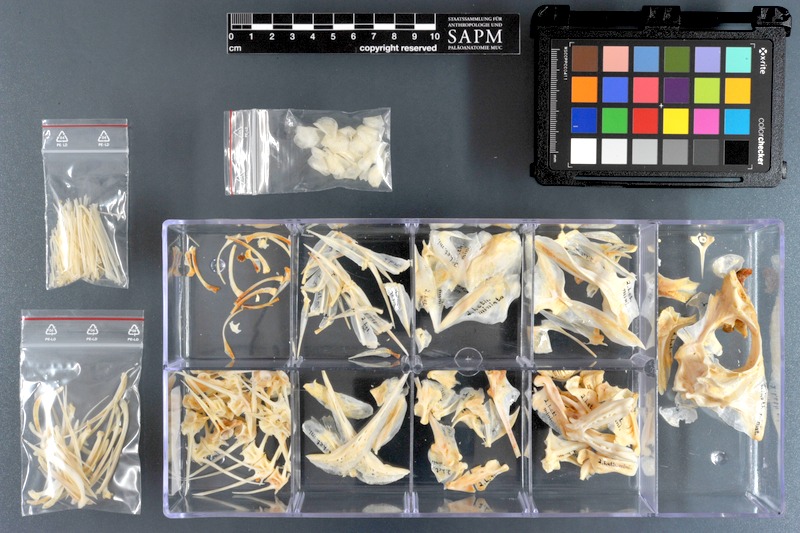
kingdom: Animalia
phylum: Chordata
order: Perciformes
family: Lethrinidae
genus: Lethrinus
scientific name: Lethrinus miniatus
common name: Trumpet emperor
